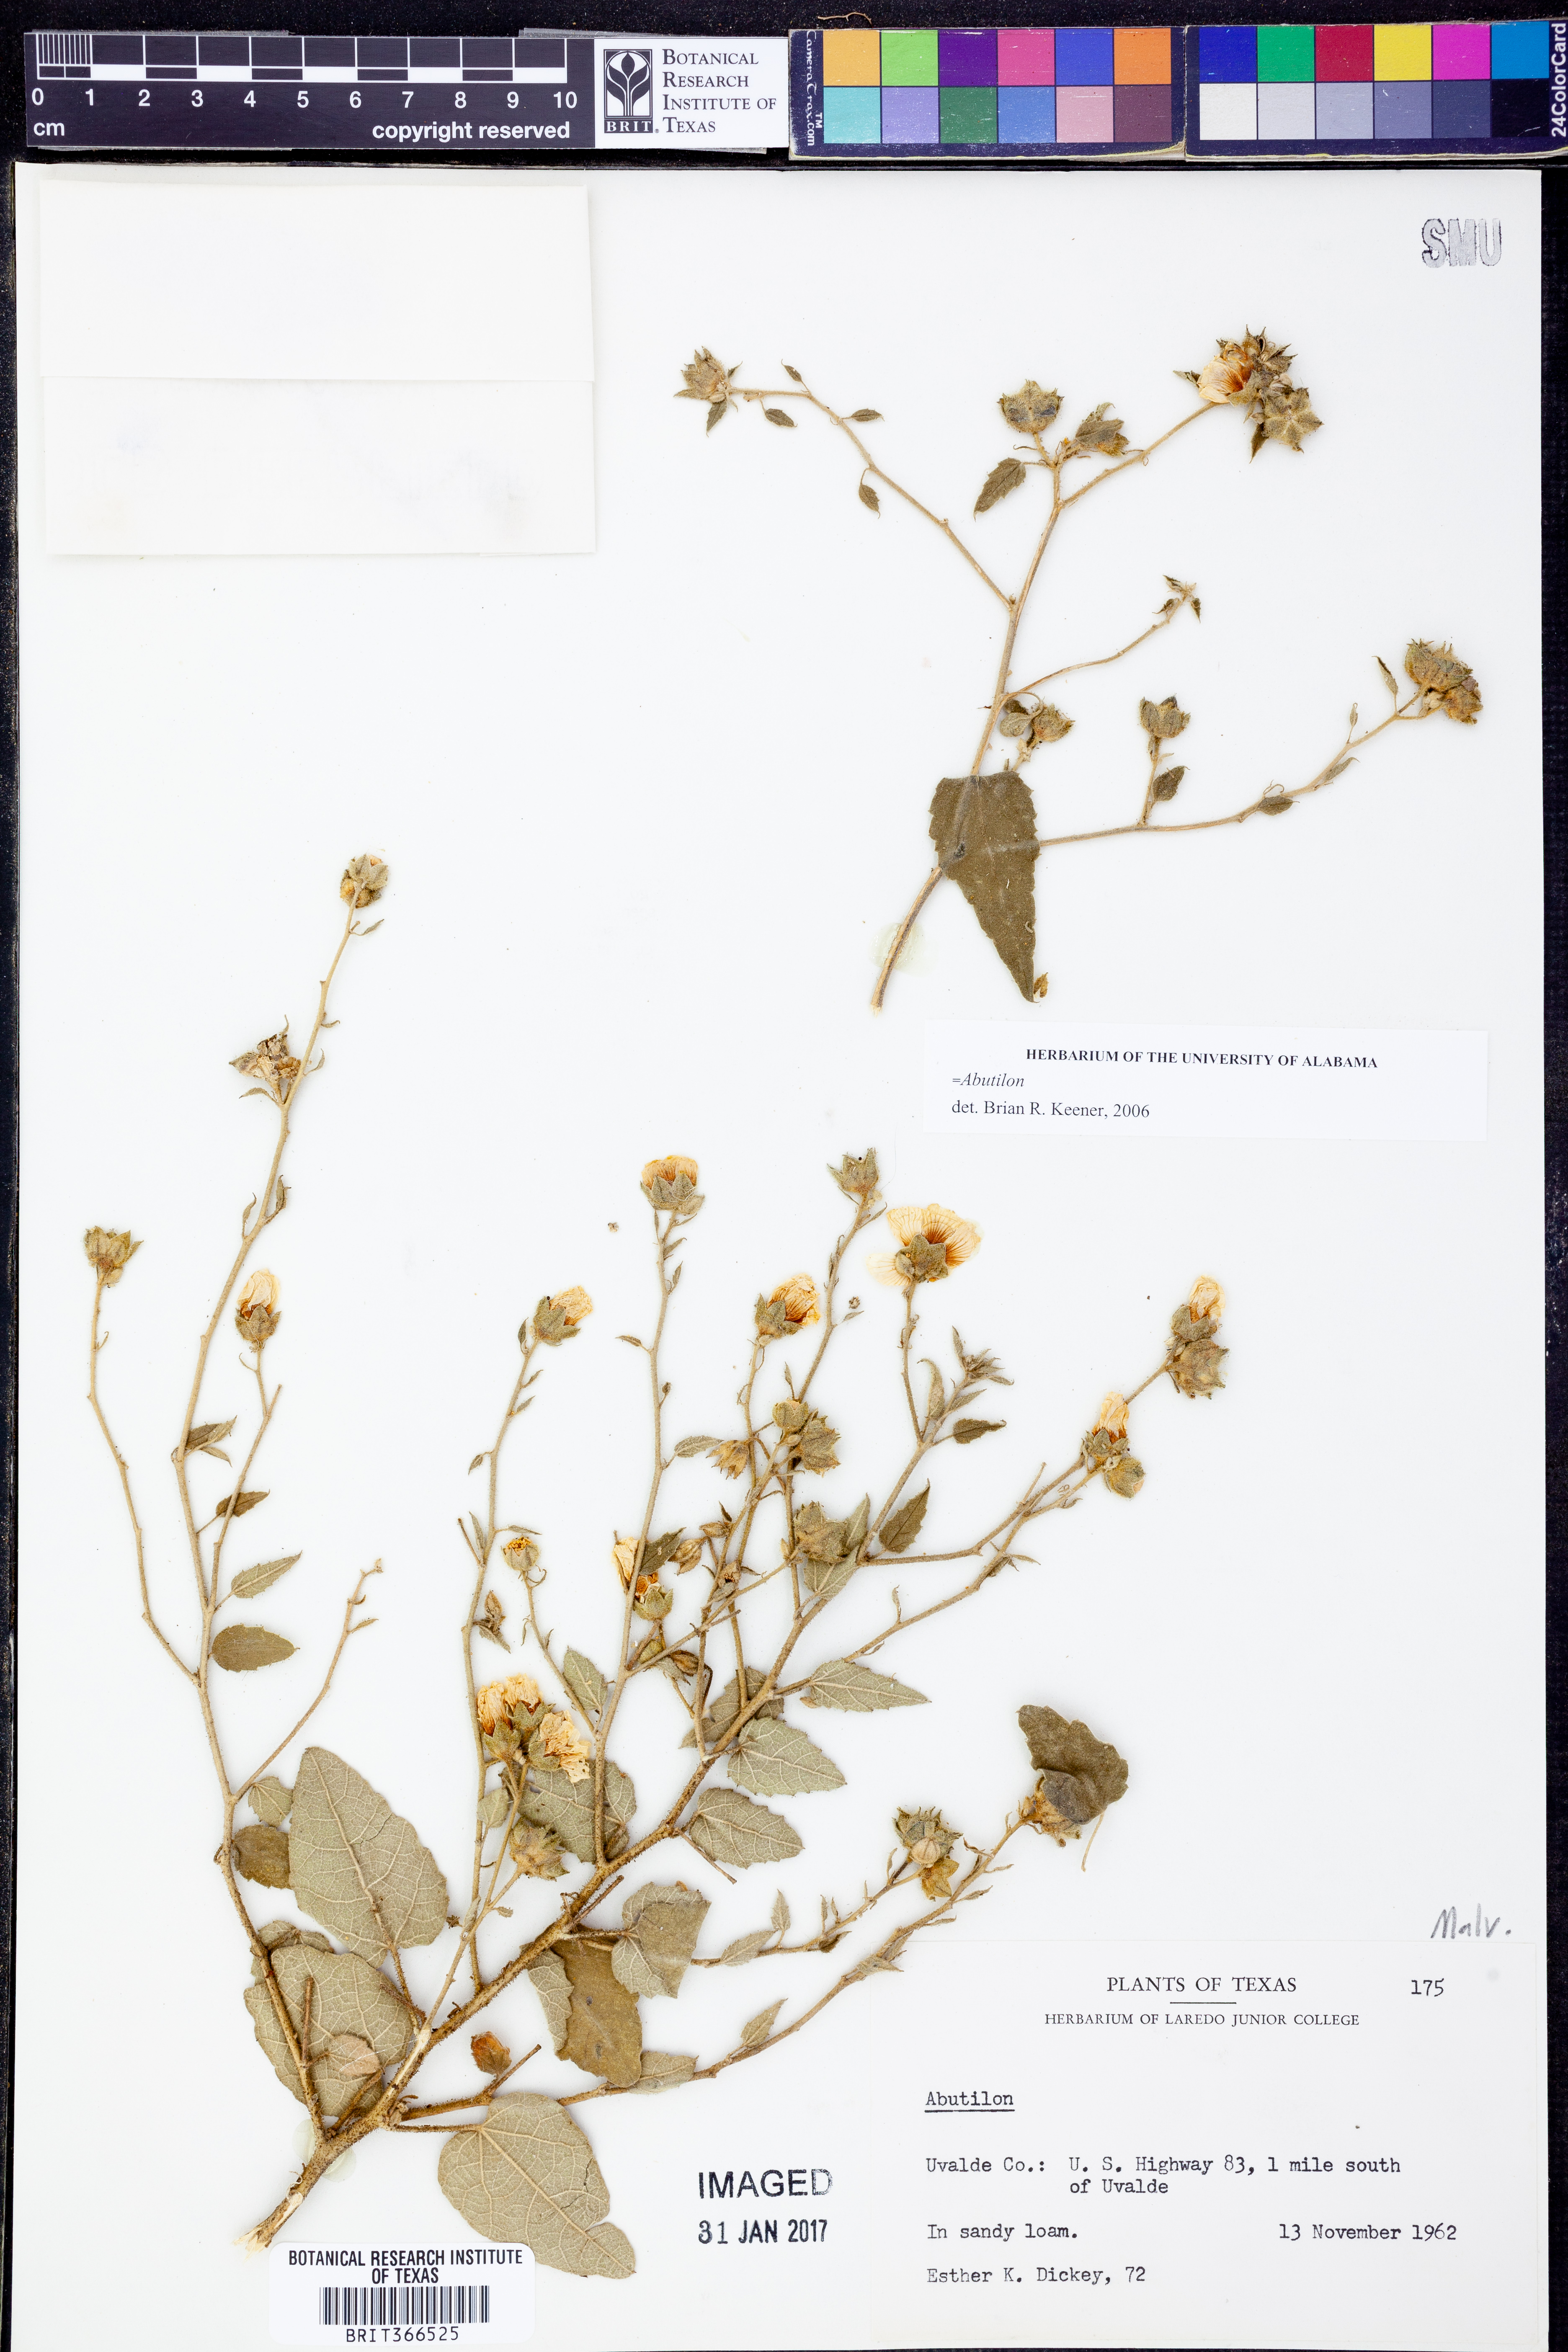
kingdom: Plantae
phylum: Tracheophyta
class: Magnoliopsida
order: Malvales
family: Malvaceae
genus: Abutilon
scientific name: Abutilon
